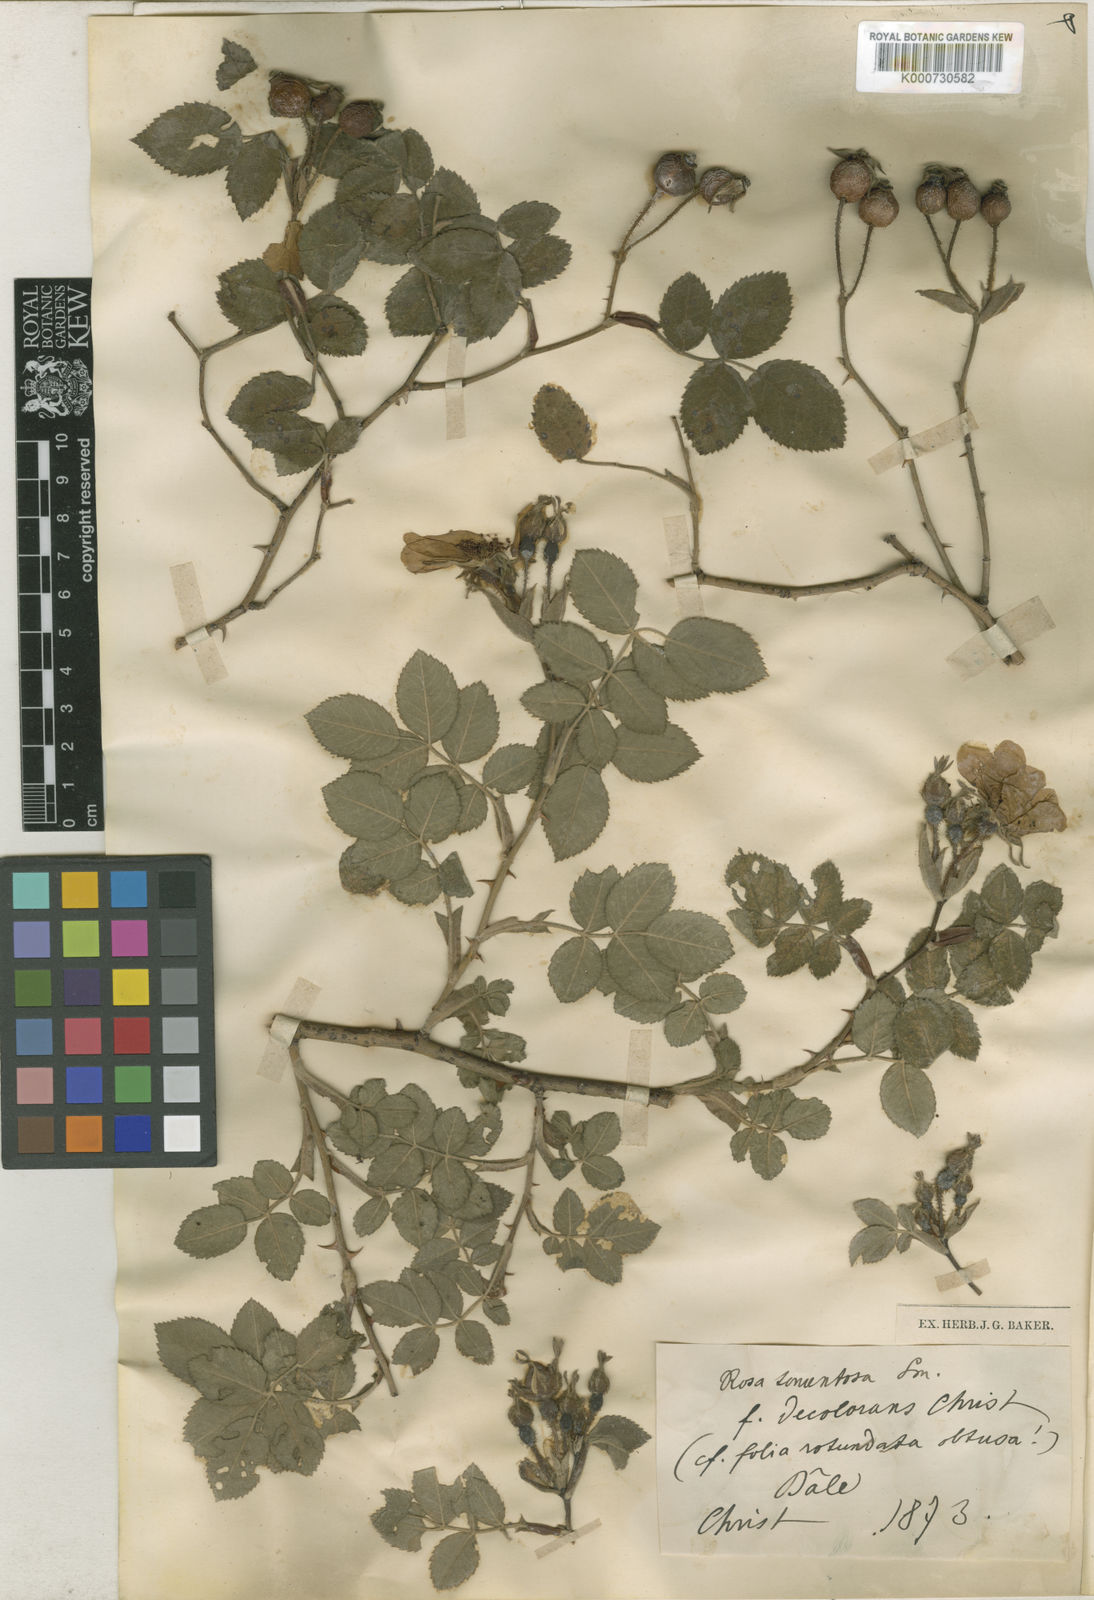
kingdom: Plantae
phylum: Tracheophyta
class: Magnoliopsida
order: Rosales
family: Rosaceae
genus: Rosa
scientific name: Rosa involuta
